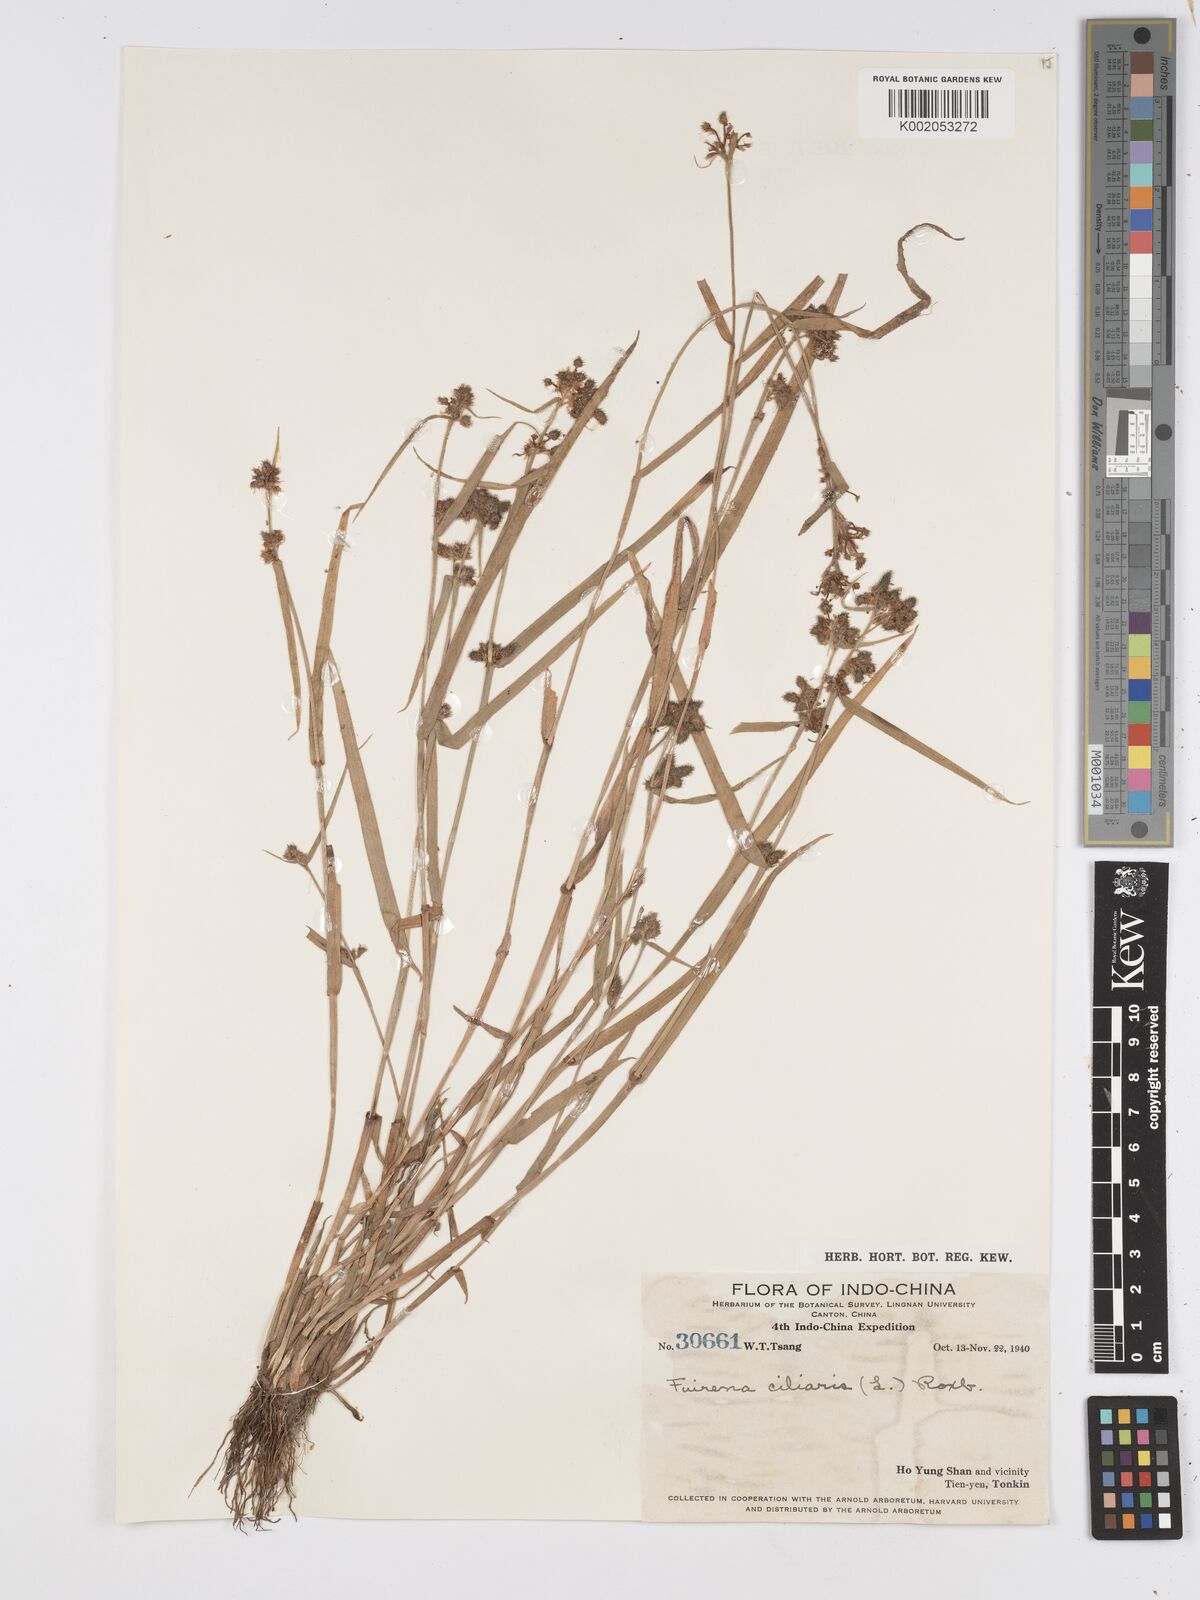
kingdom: Plantae
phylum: Tracheophyta
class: Liliopsida
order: Poales
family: Cyperaceae
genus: Fuirena
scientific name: Fuirena ciliaris
